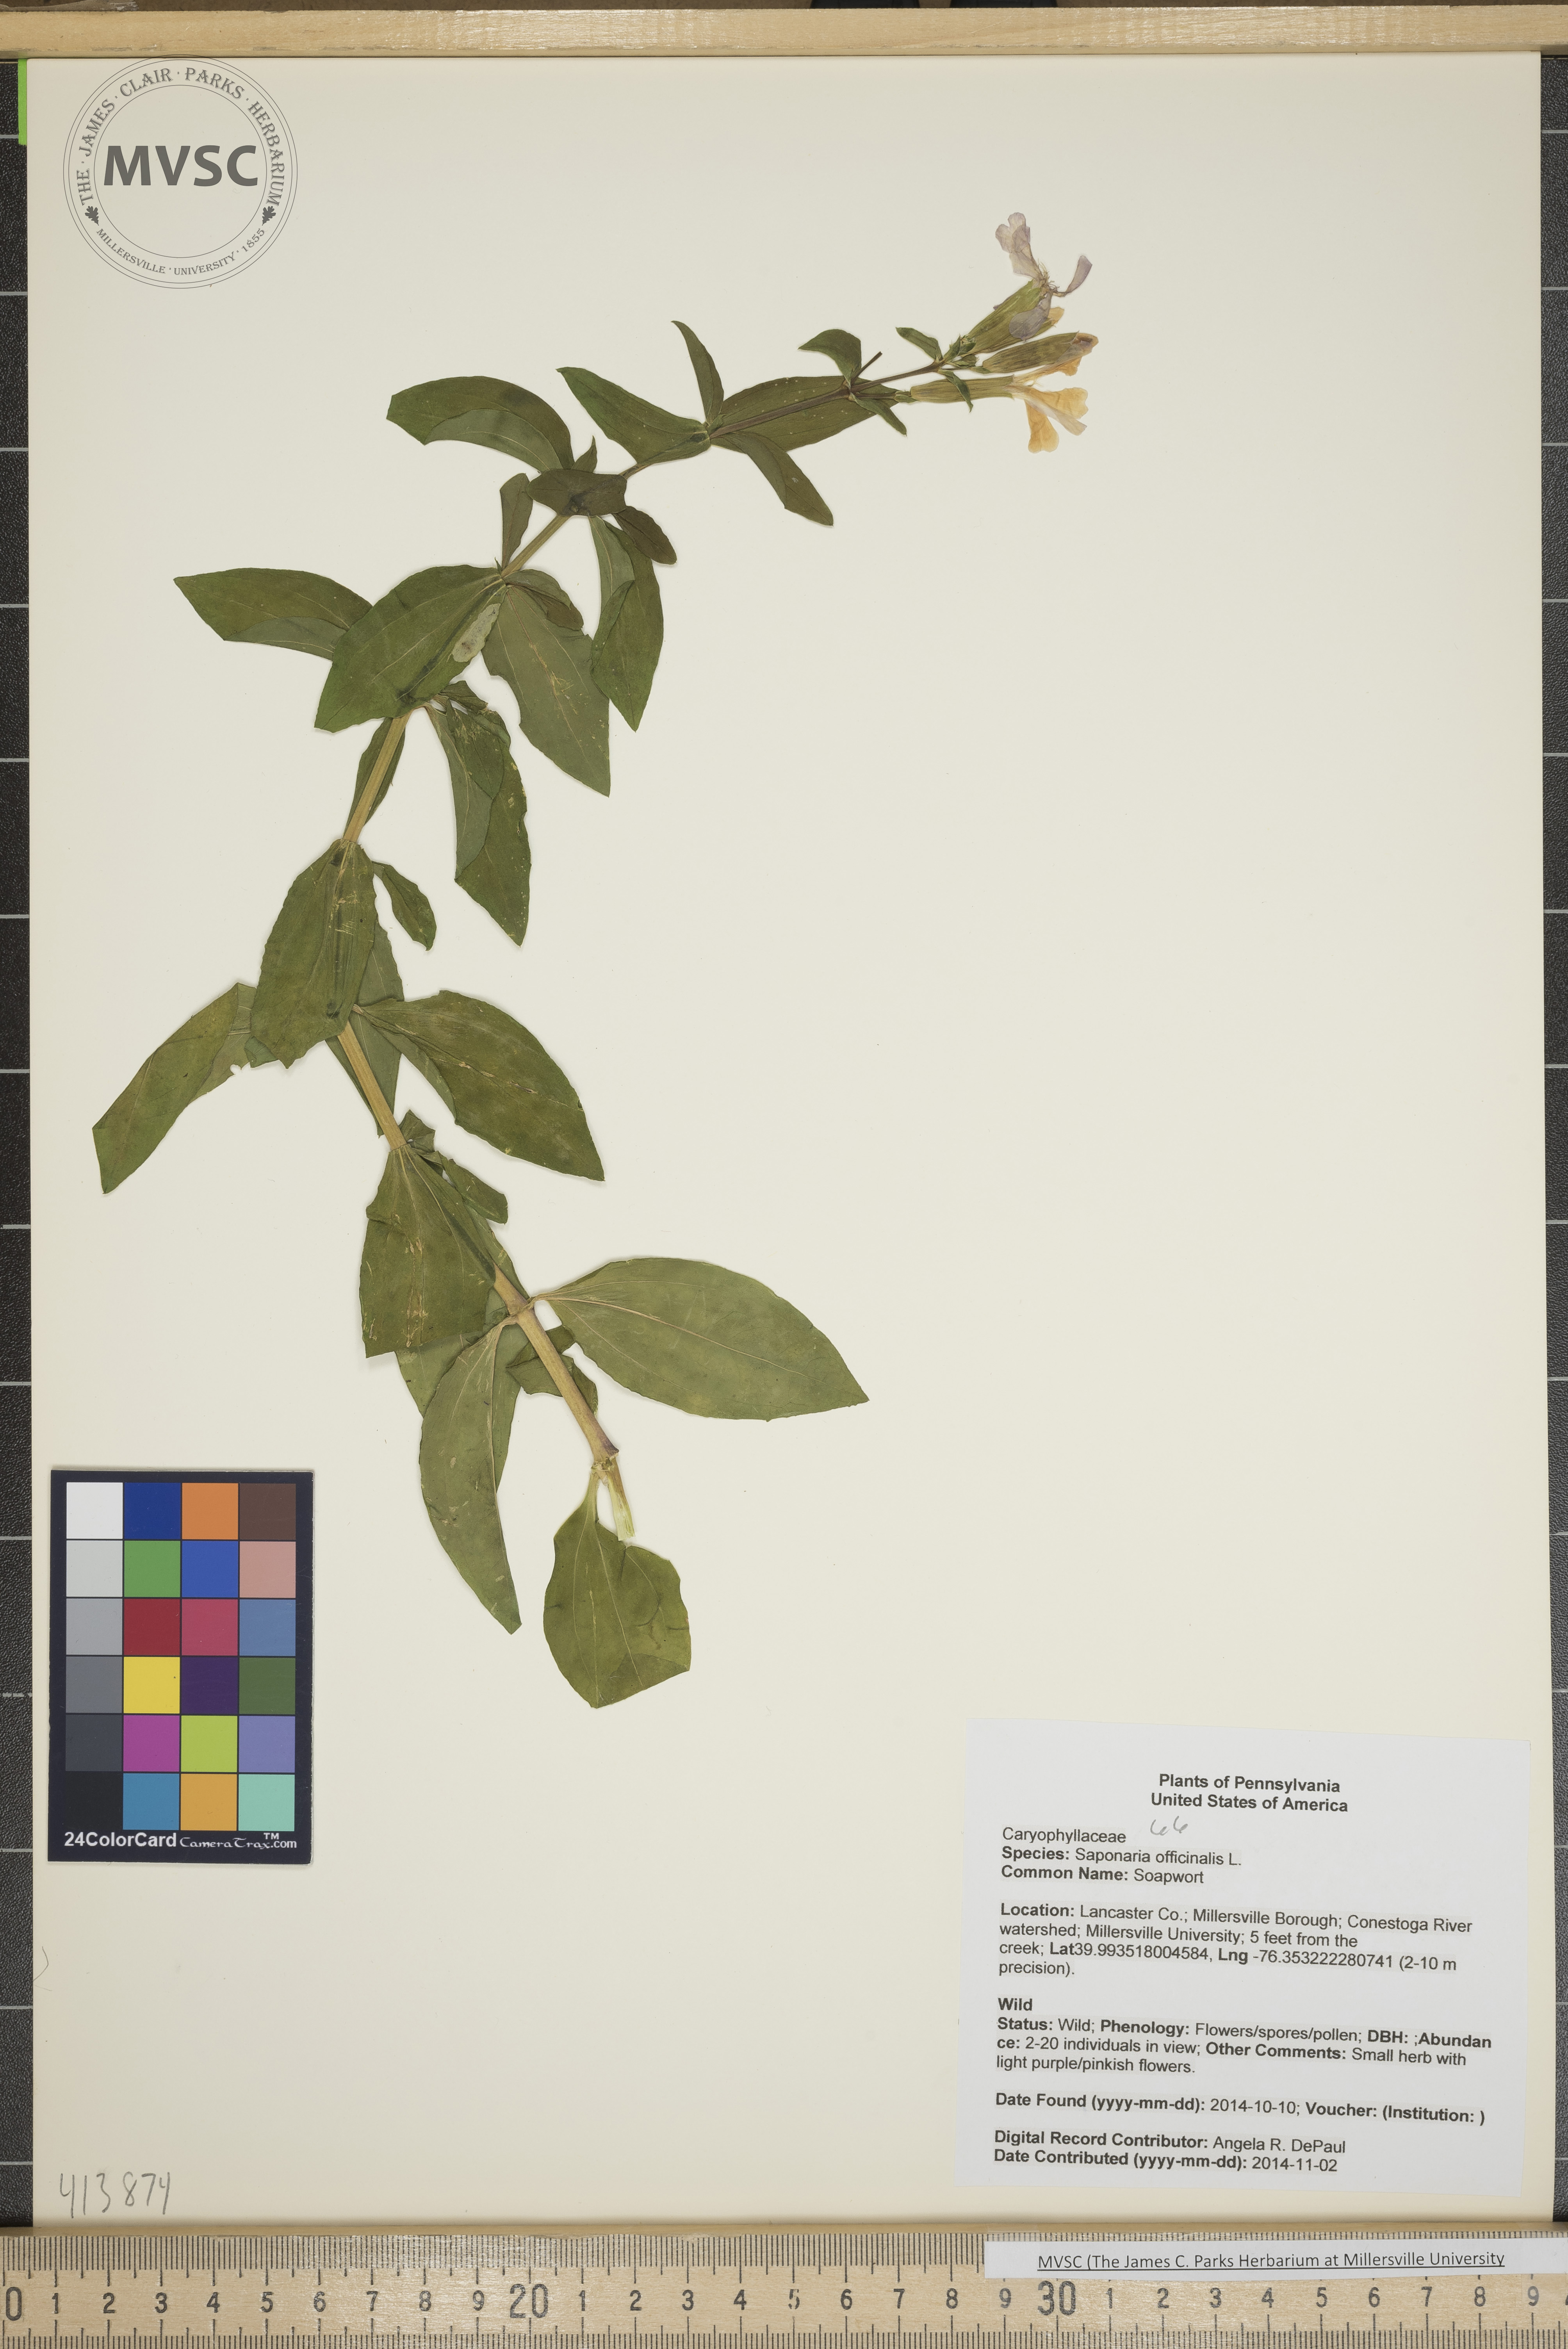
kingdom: Plantae
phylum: Tracheophyta
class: Magnoliopsida
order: Caryophyllales
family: Caryophyllaceae
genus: Saponaria
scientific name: Saponaria officinalis
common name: Soapwort
